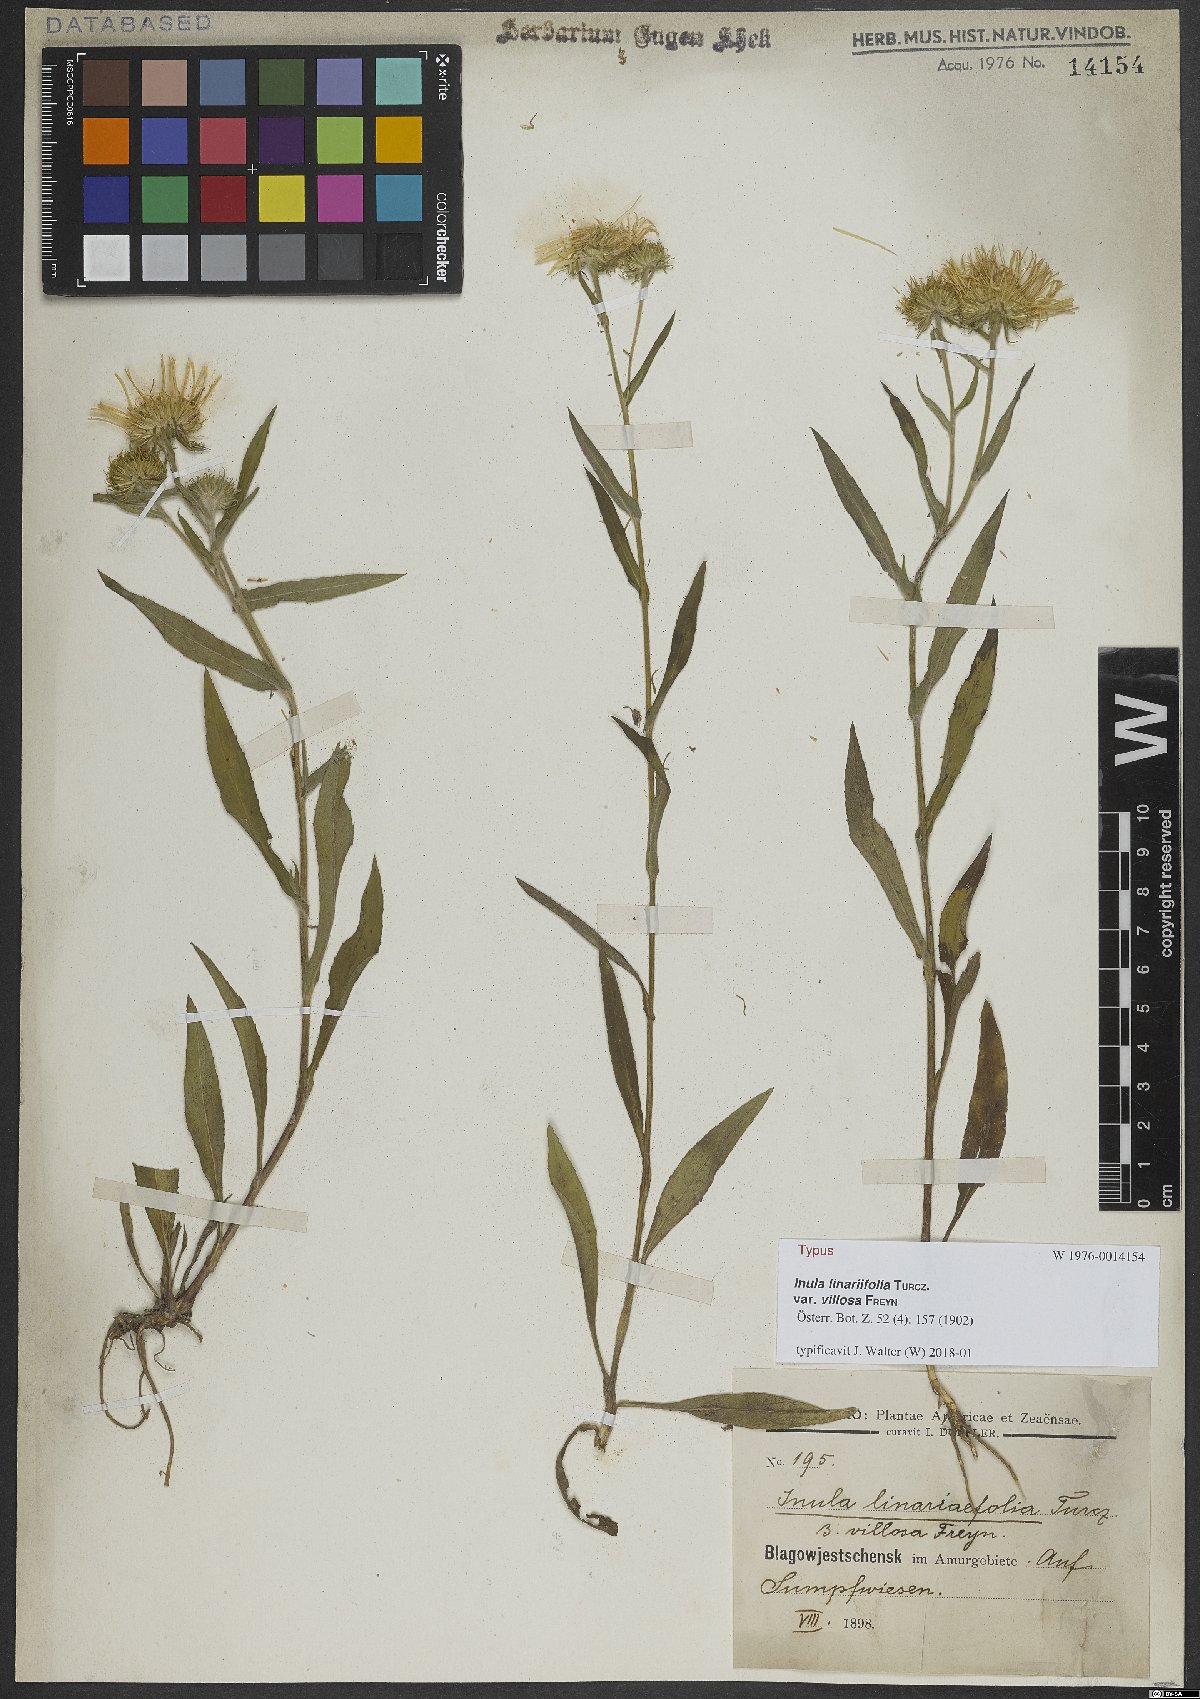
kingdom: Plantae
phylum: Tracheophyta
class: Magnoliopsida
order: Asterales
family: Asteraceae
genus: Inula
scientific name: Inula linariifolia
